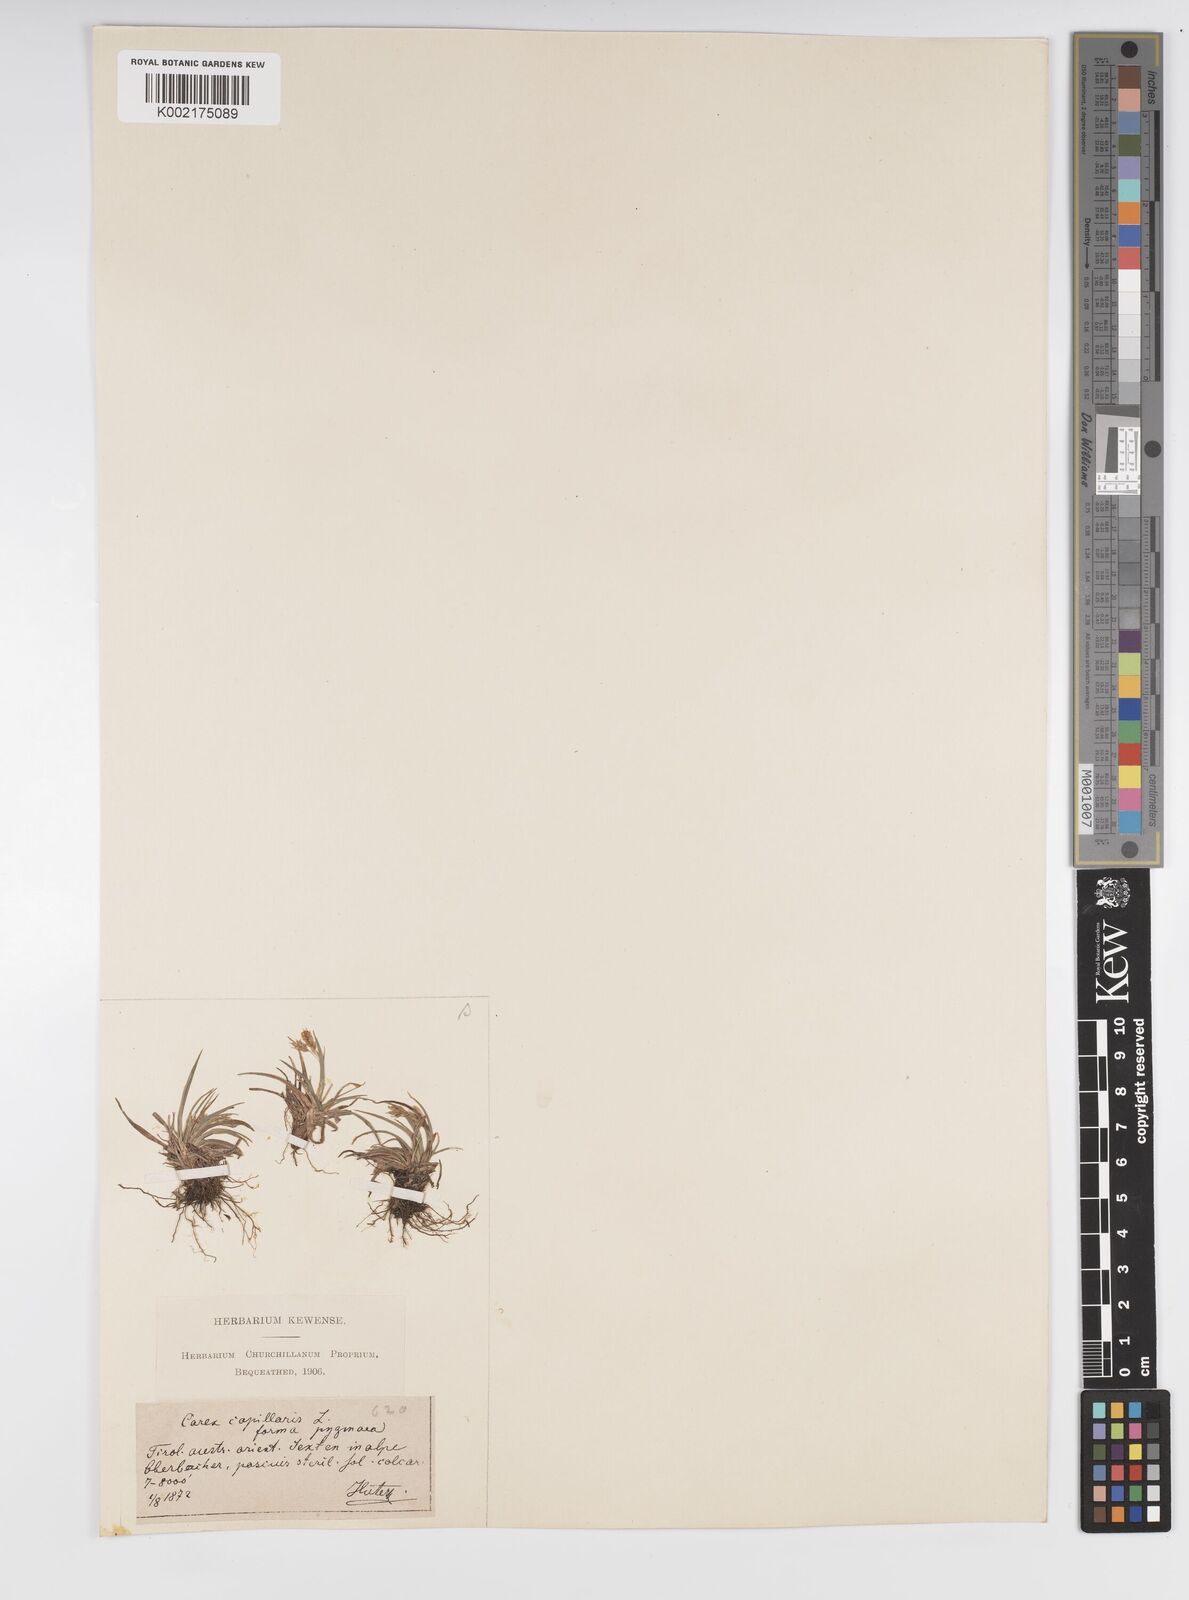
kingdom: Plantae
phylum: Tracheophyta
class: Liliopsida
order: Poales
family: Cyperaceae
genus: Carex
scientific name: Carex capillaris
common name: Hair sedge
